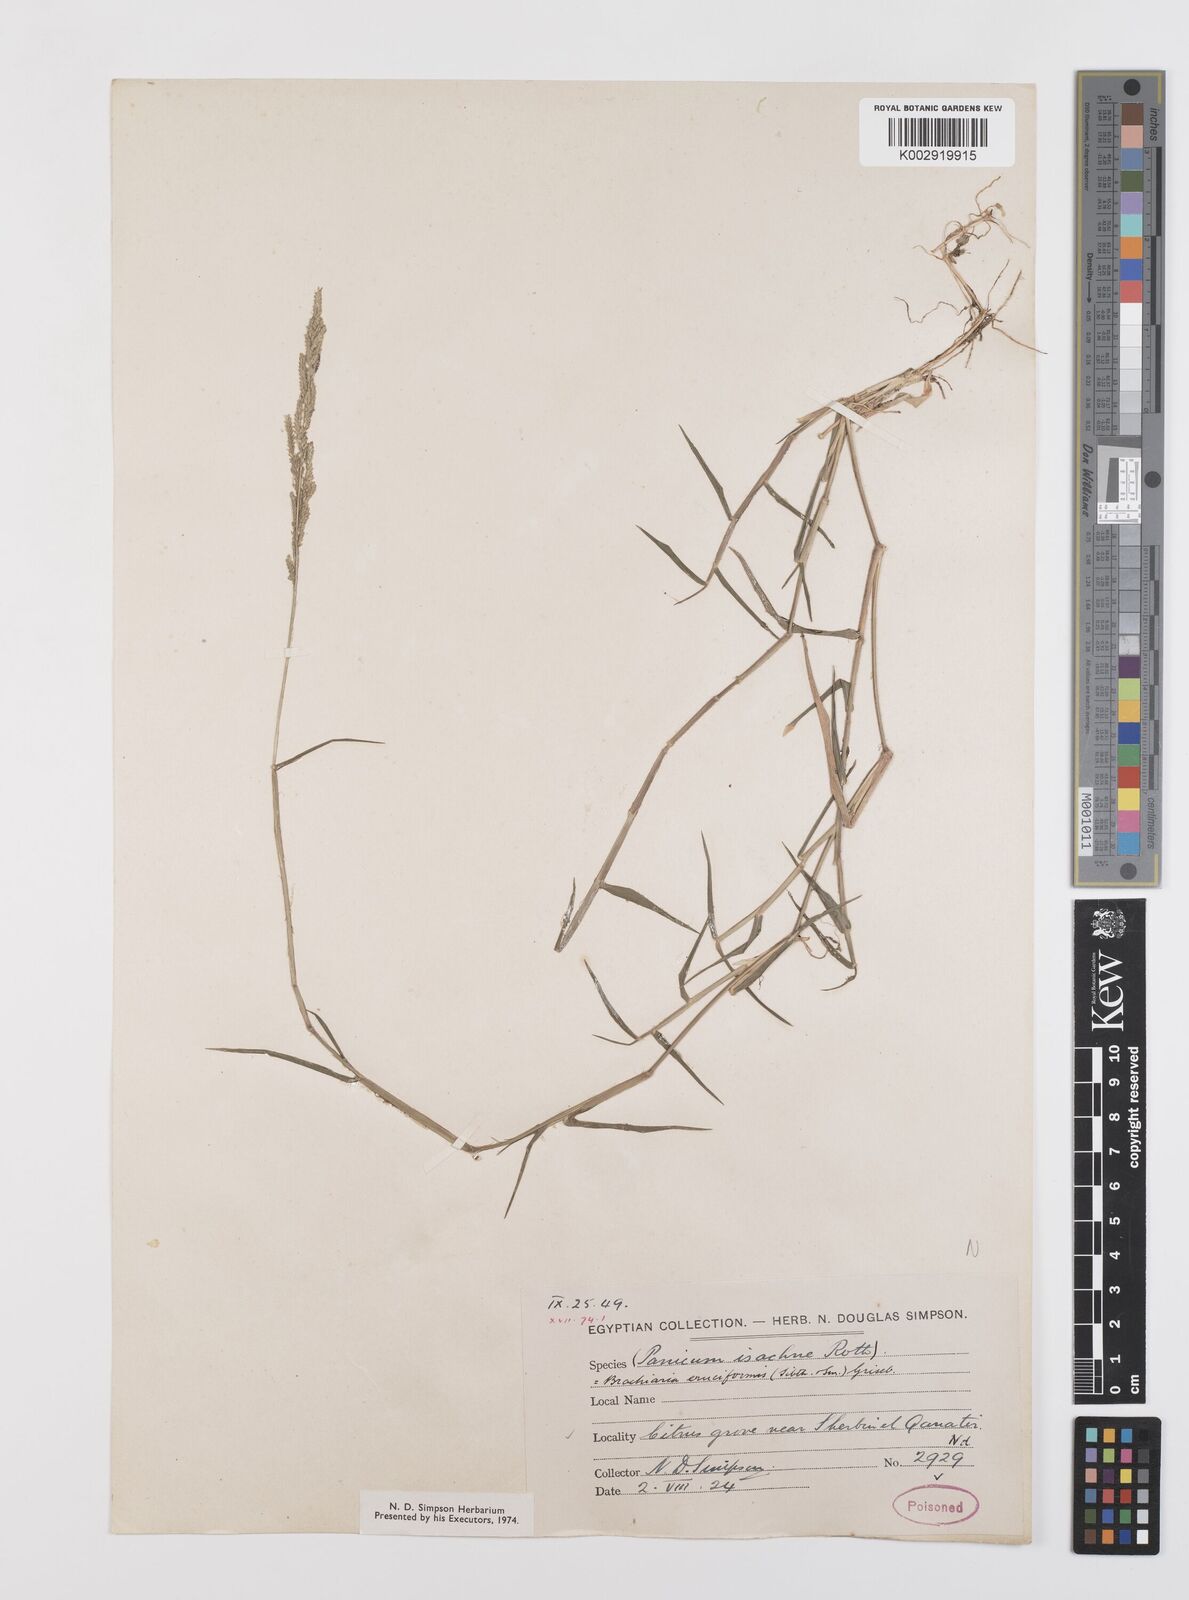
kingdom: Plantae
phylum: Tracheophyta
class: Liliopsida
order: Poales
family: Poaceae
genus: Moorochloa
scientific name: Moorochloa eruciformis
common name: Sweet signalgrass
